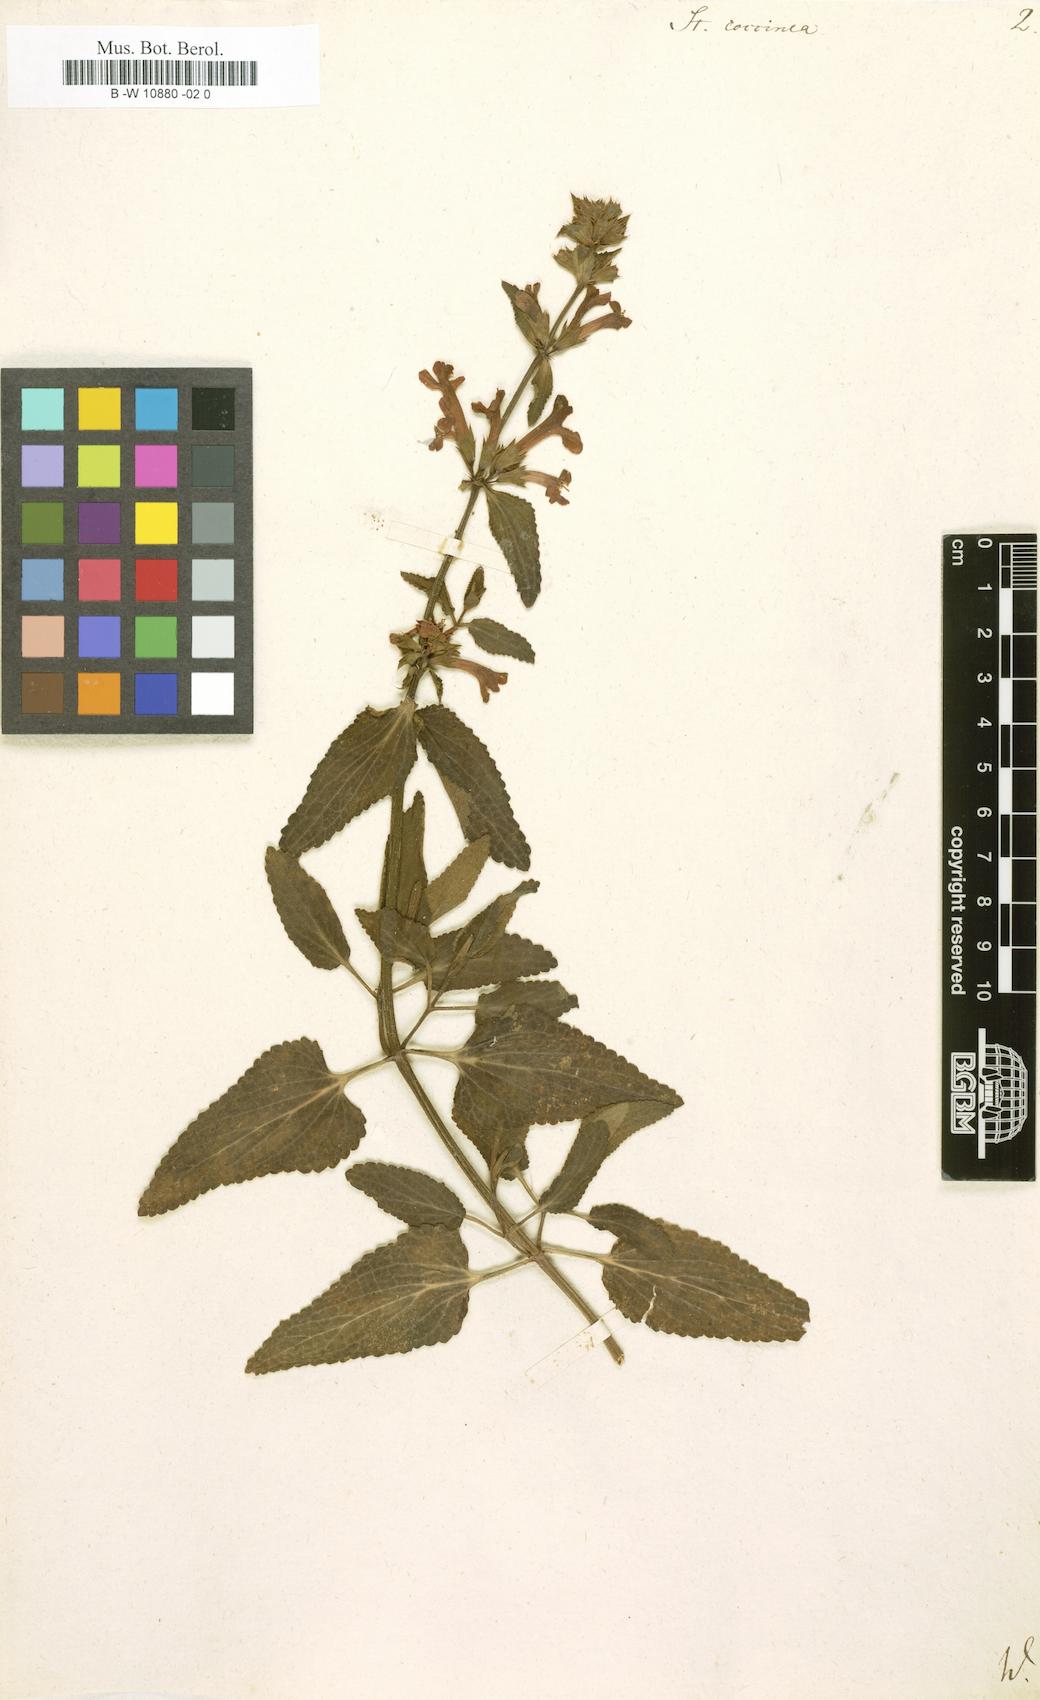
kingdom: Plantae
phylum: Tracheophyta
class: Magnoliopsida
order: Lamiales
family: Lamiaceae
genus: Stachys
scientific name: Stachys coccinea
